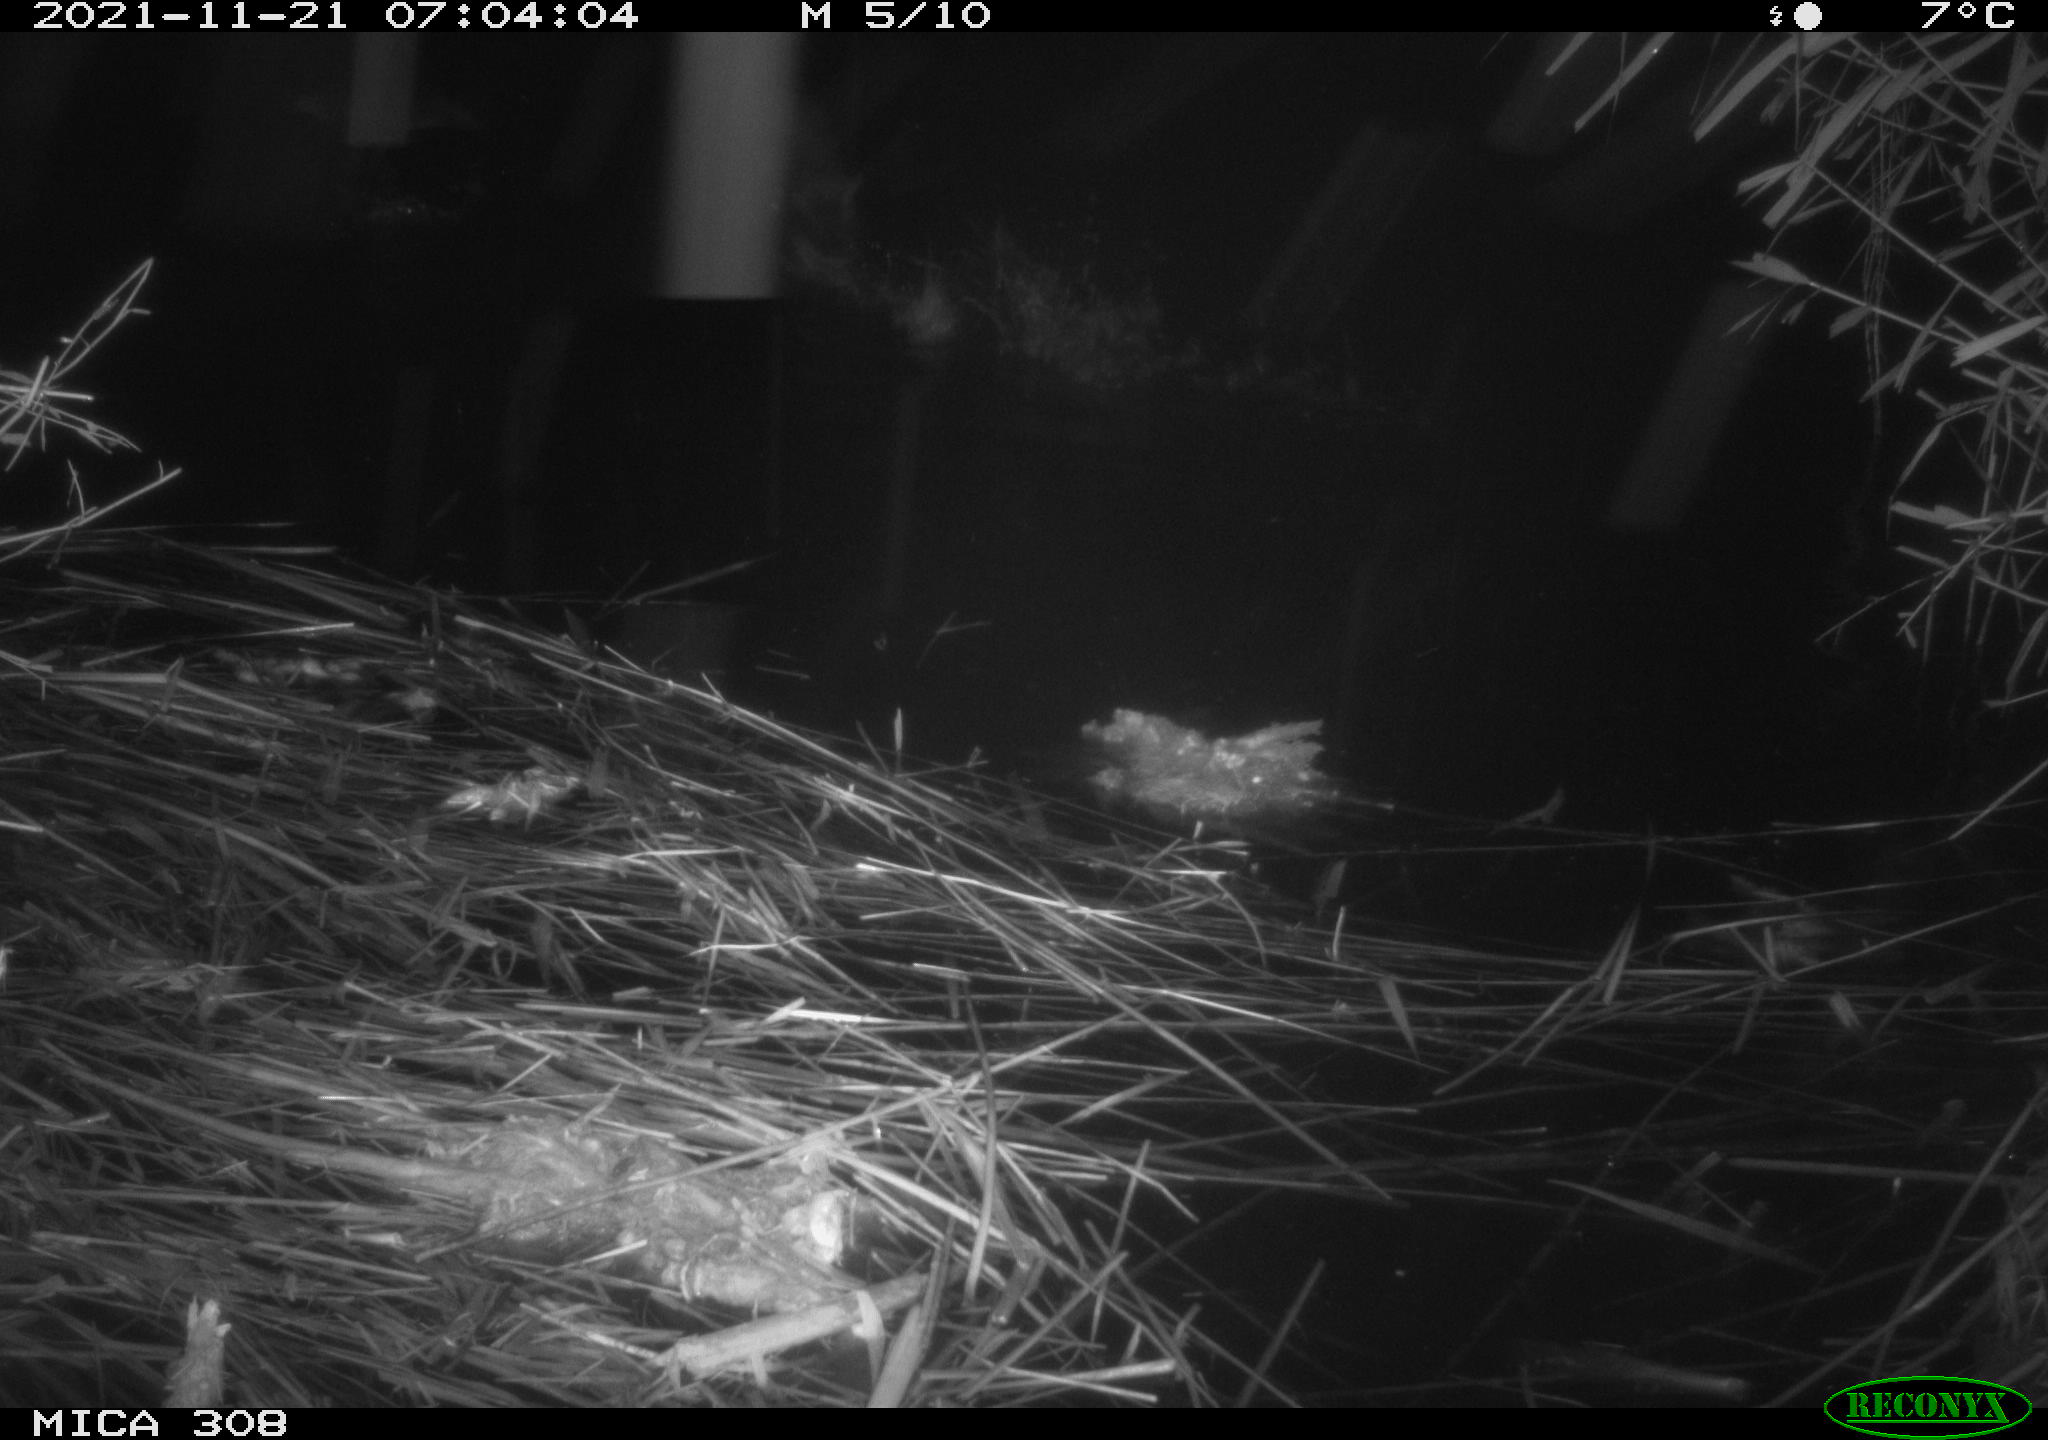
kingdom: Animalia
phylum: Chordata
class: Aves
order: Gruiformes
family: Rallidae
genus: Fulica
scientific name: Fulica atra
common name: Eurasian coot
